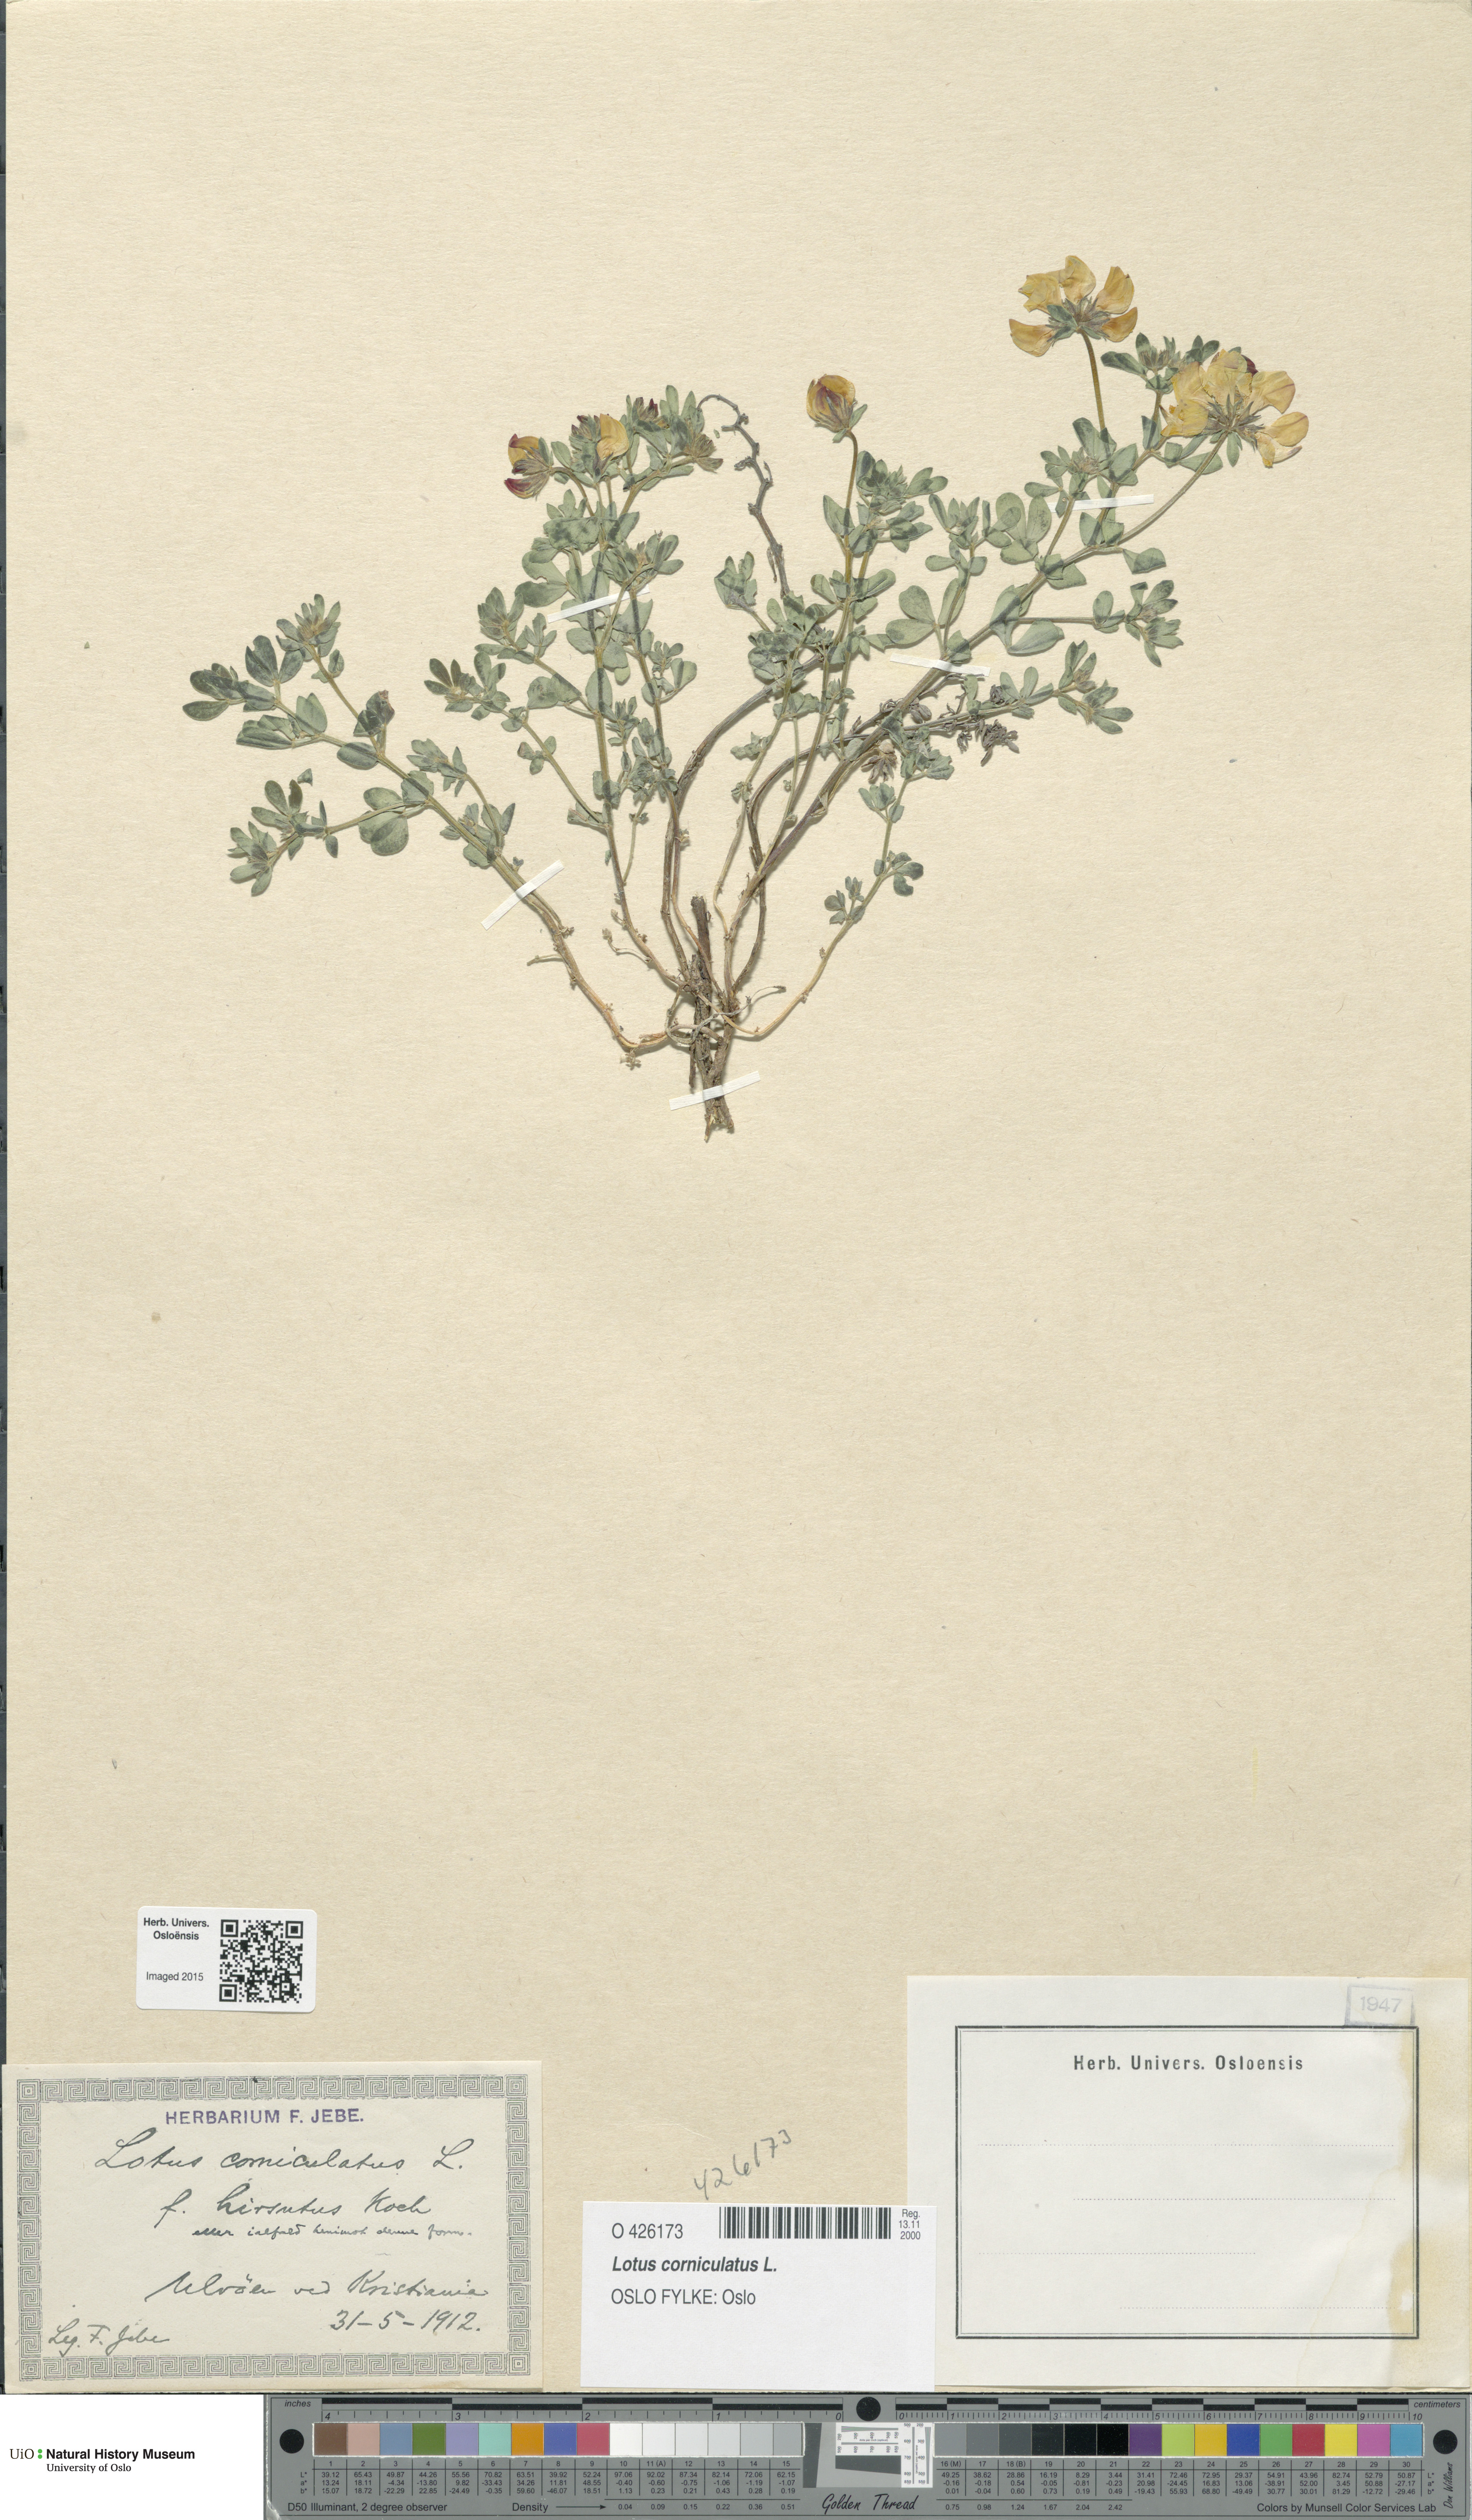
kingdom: Plantae
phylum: Tracheophyta
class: Magnoliopsida
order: Fabales
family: Fabaceae
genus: Lotus
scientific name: Lotus corniculatus
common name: Common bird's-foot-trefoil
